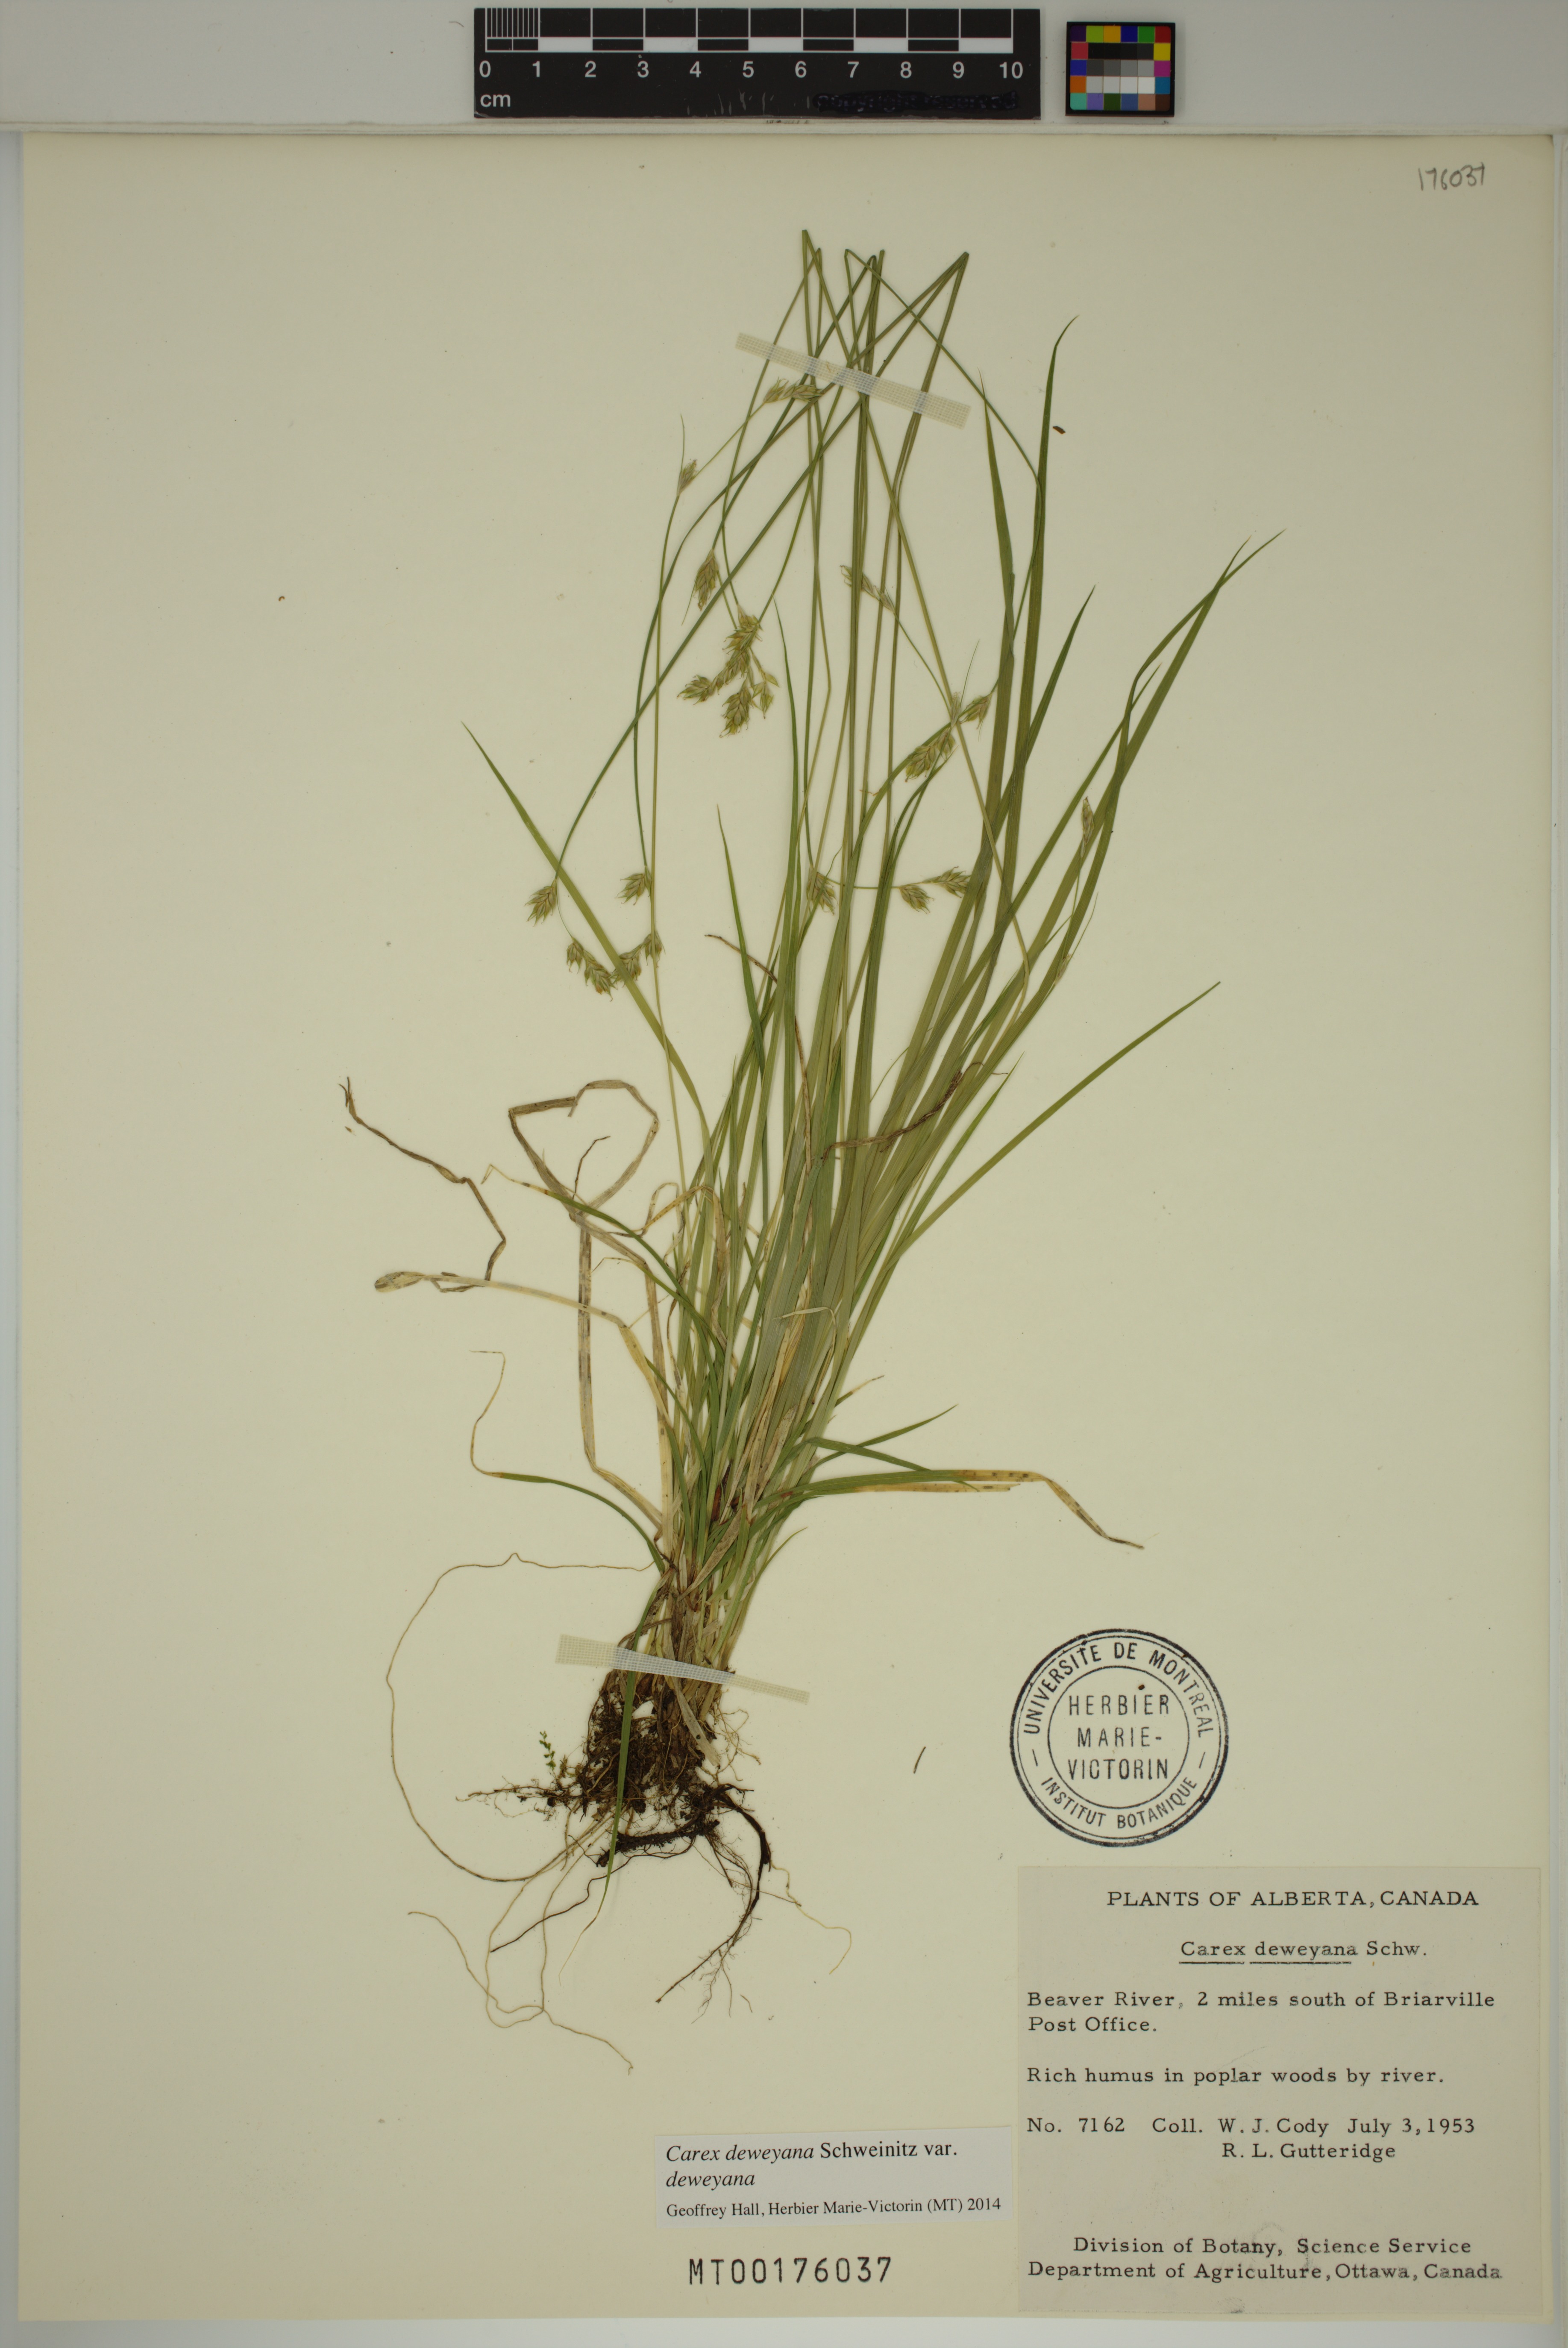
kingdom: Plantae
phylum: Tracheophyta
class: Liliopsida
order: Poales
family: Cyperaceae
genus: Carex
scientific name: Carex deweyana
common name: Dewey's sedge
